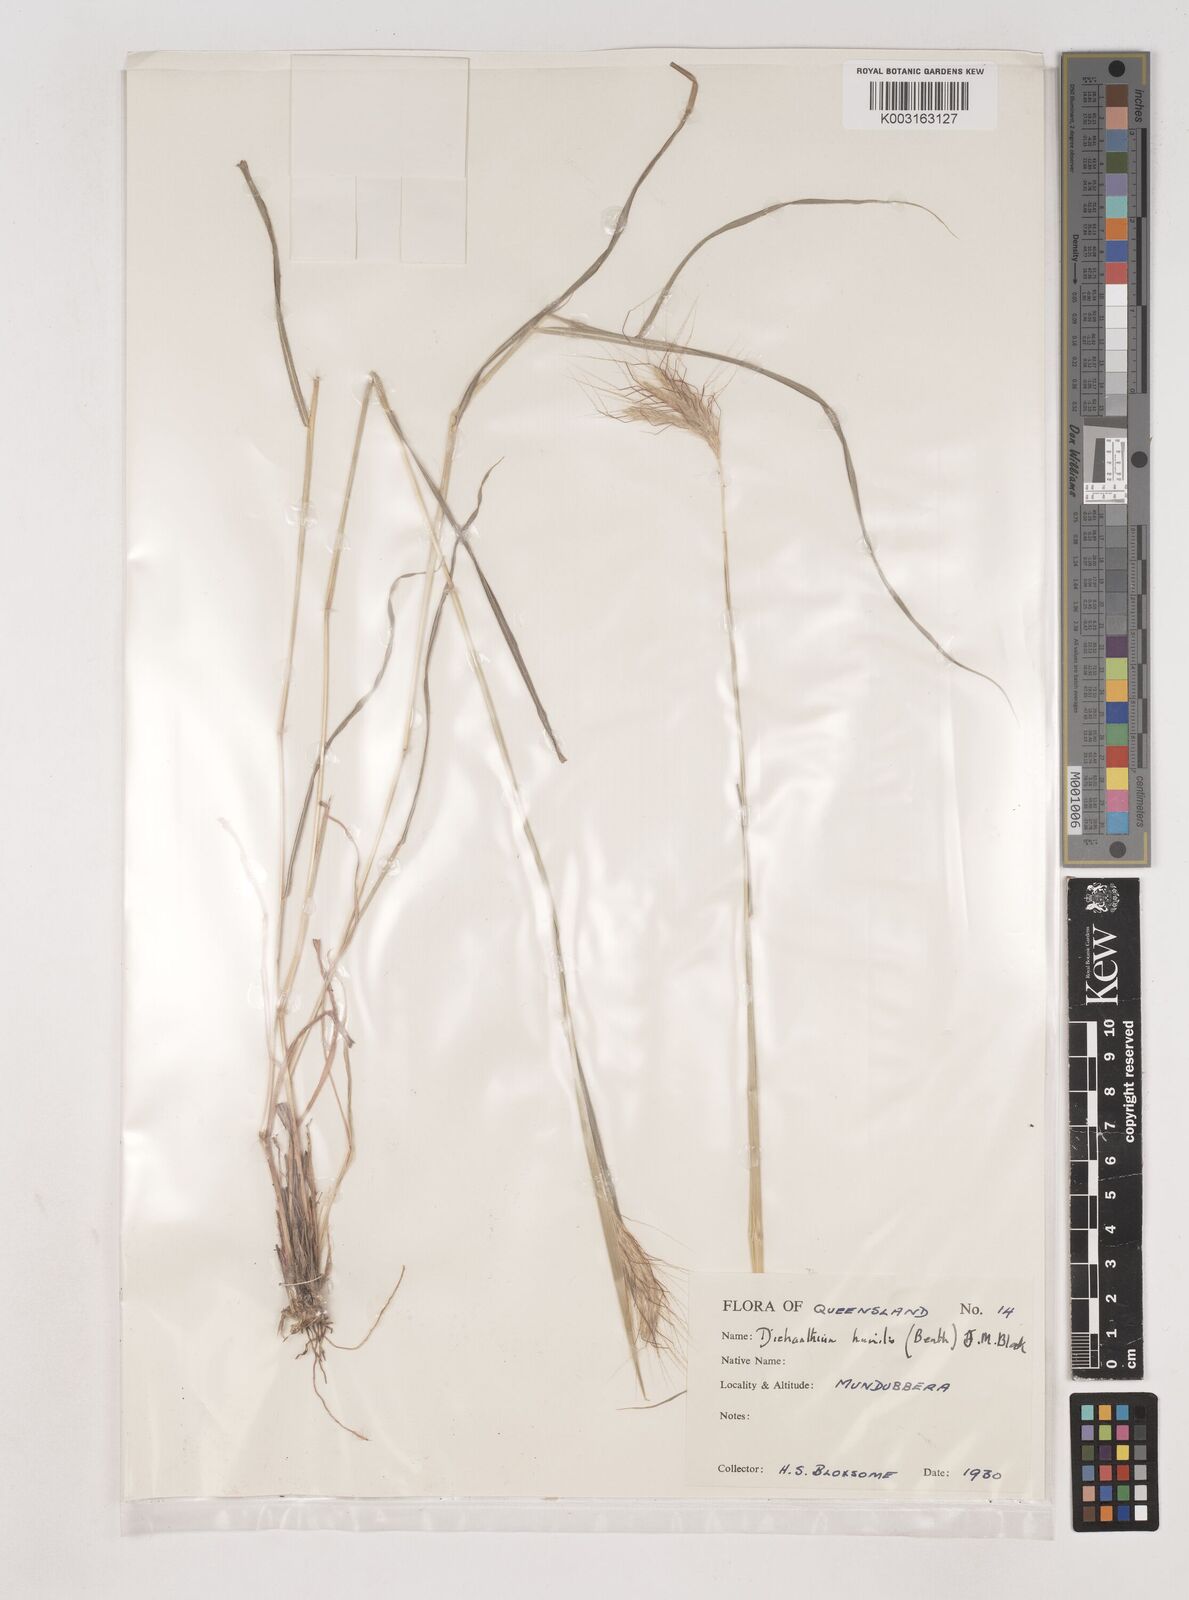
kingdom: Plantae
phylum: Tracheophyta
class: Liliopsida
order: Poales
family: Poaceae
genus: Dichanthium
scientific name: Dichanthium sericeum
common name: Silky bluestem
